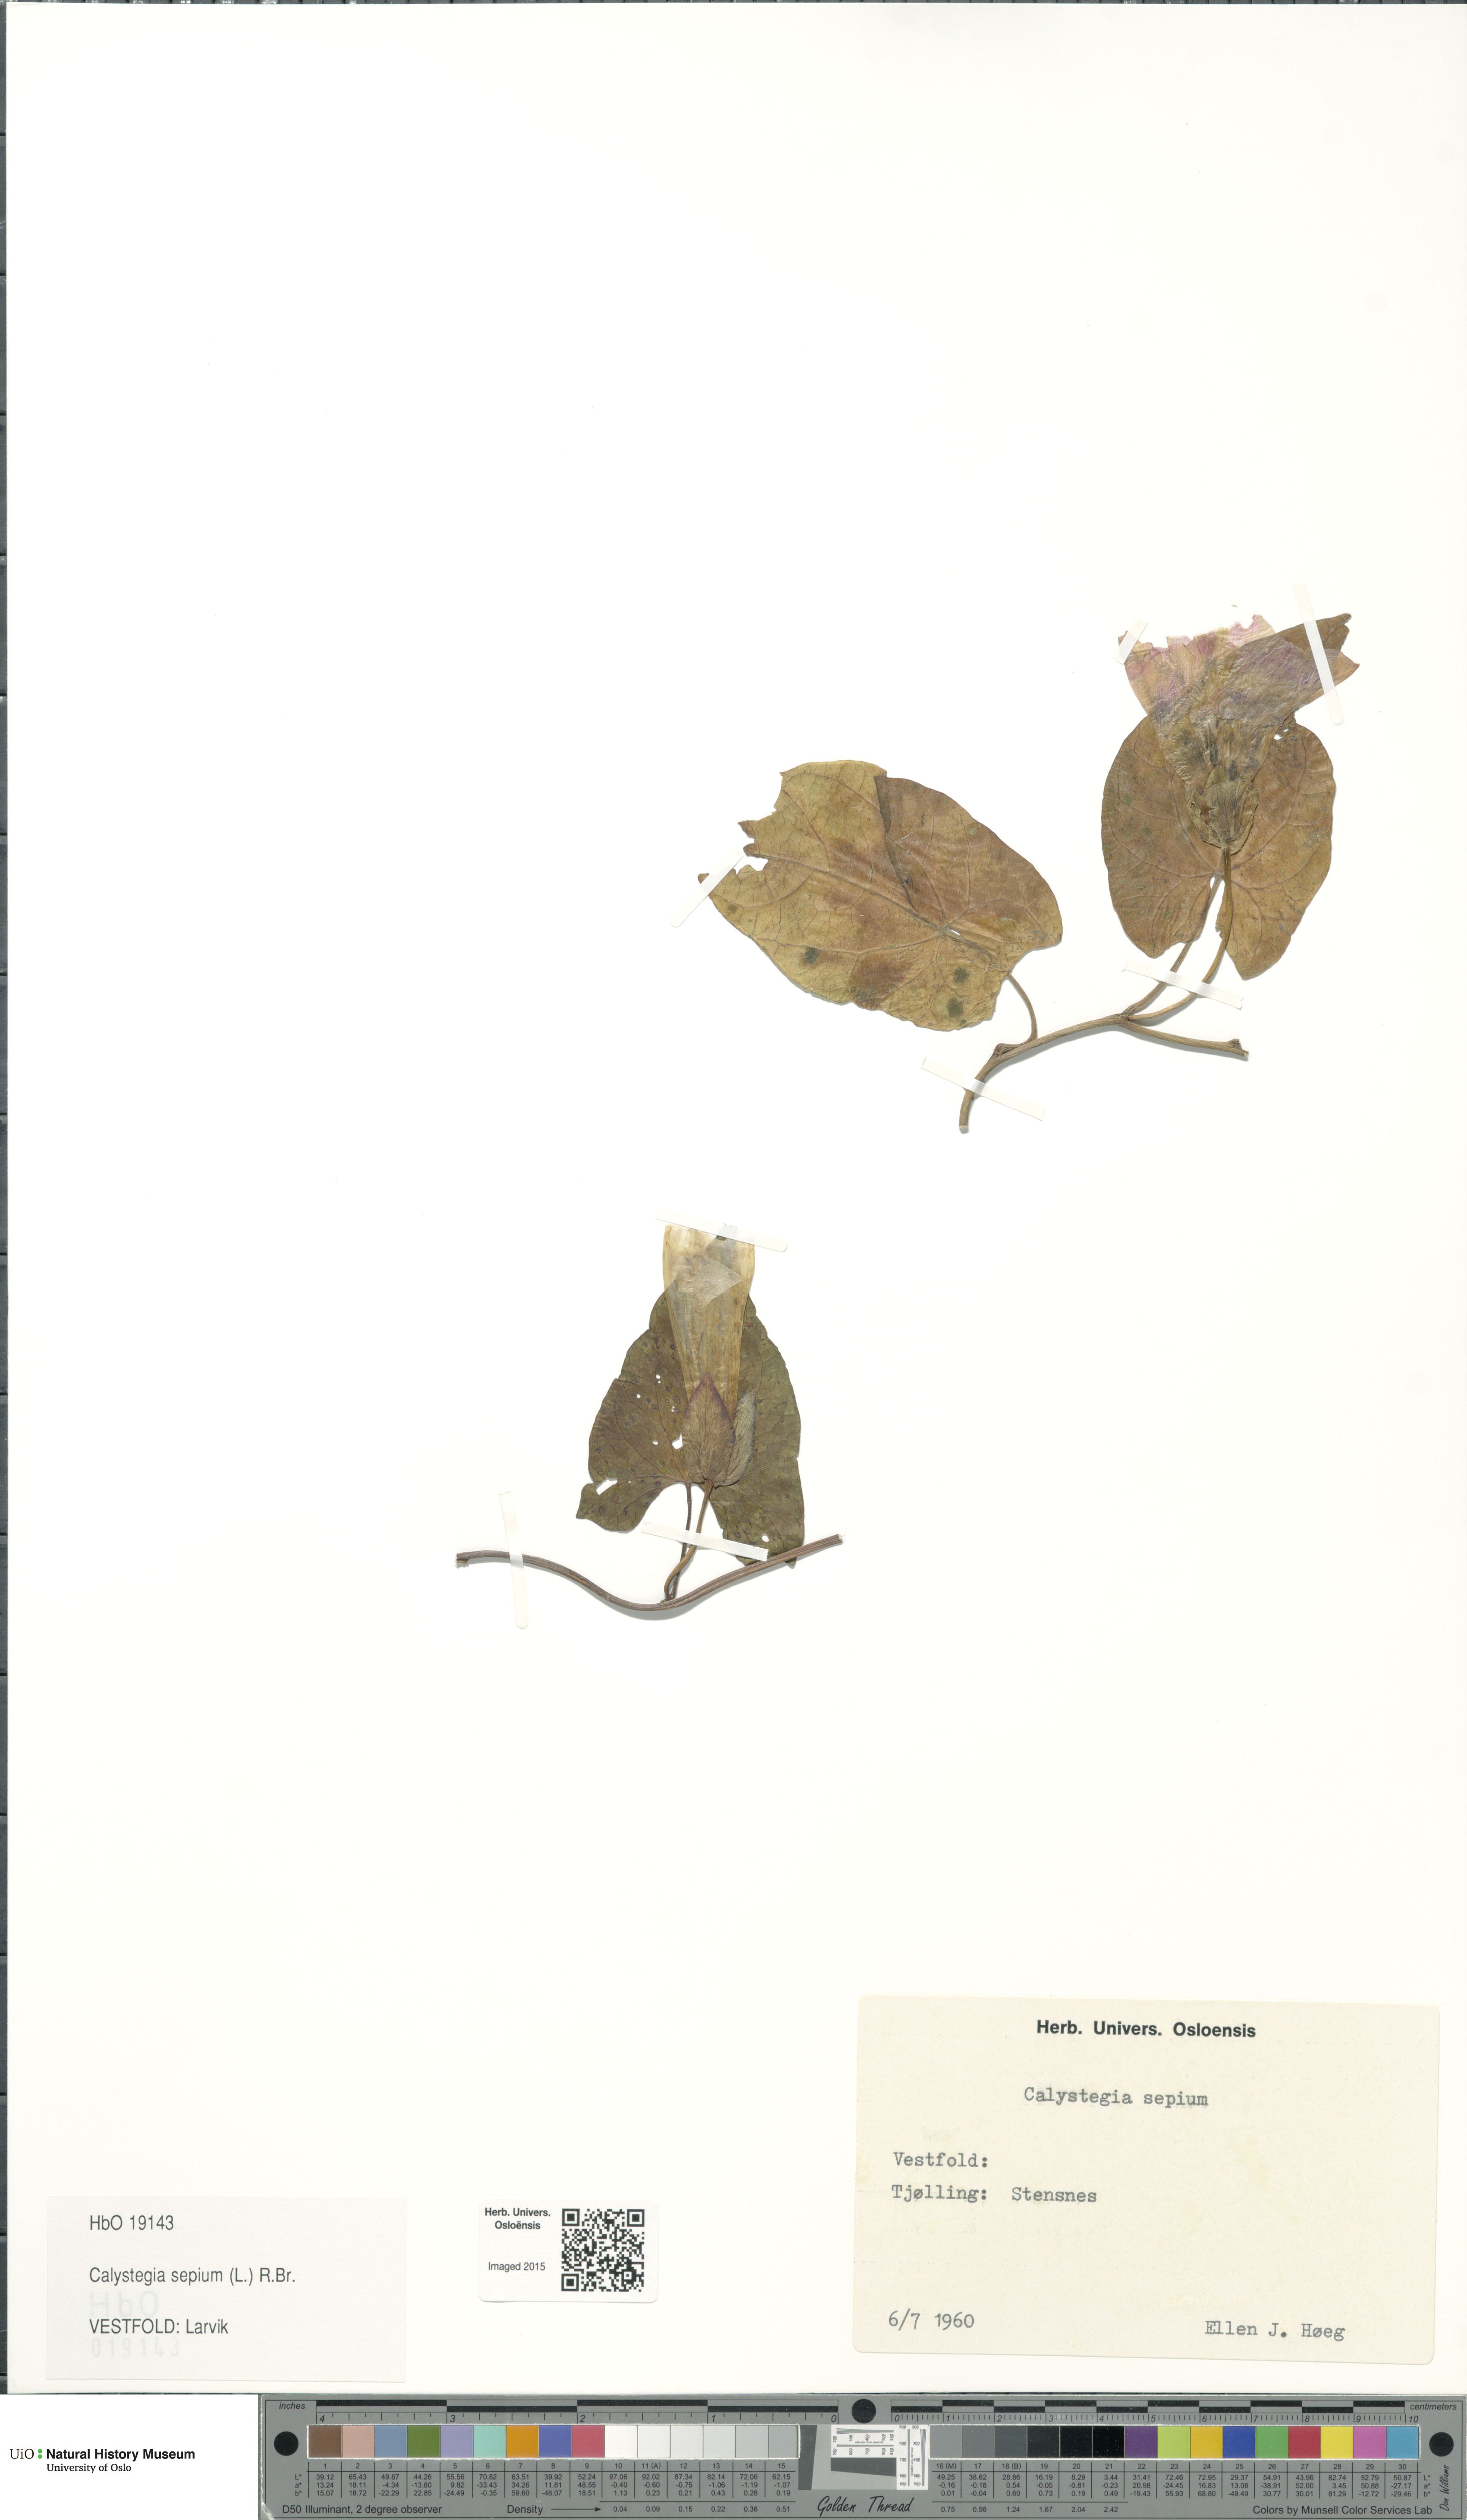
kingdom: Plantae
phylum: Tracheophyta
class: Magnoliopsida
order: Solanales
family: Convolvulaceae
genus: Calystegia
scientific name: Calystegia sepium
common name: Hedge bindweed
